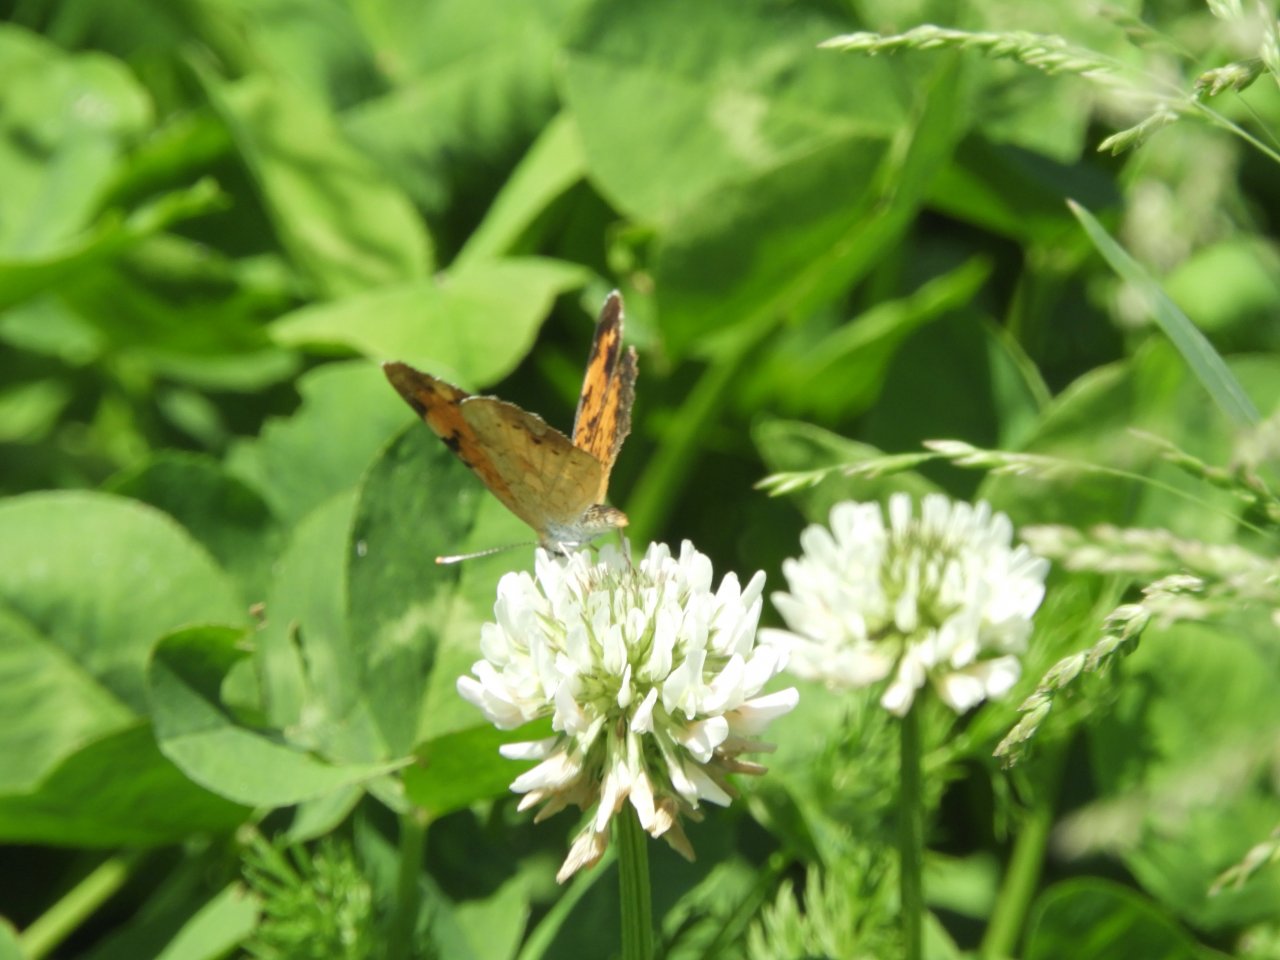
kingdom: Animalia
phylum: Arthropoda
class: Insecta
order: Lepidoptera
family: Nymphalidae
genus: Phyciodes
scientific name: Phyciodes tharos
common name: Northern Crescent
